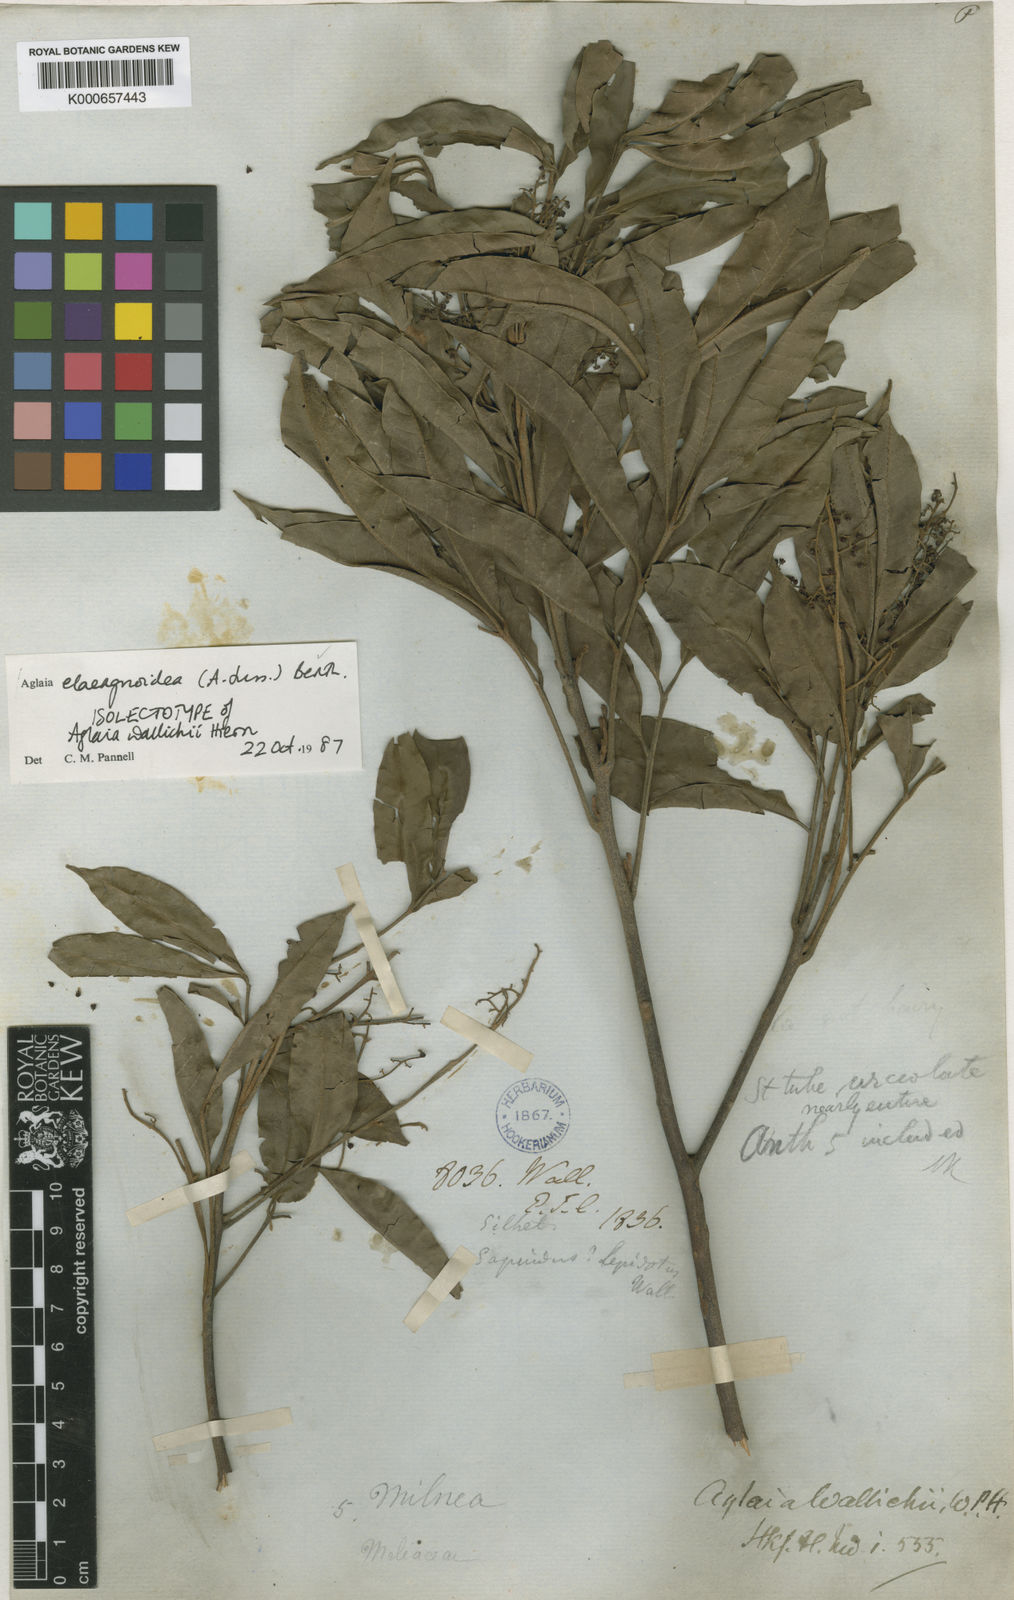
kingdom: Plantae
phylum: Tracheophyta
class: Magnoliopsida
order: Sapindales
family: Meliaceae
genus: Aglaia
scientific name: Aglaia elaeagnoidea
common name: Droopyleaf
